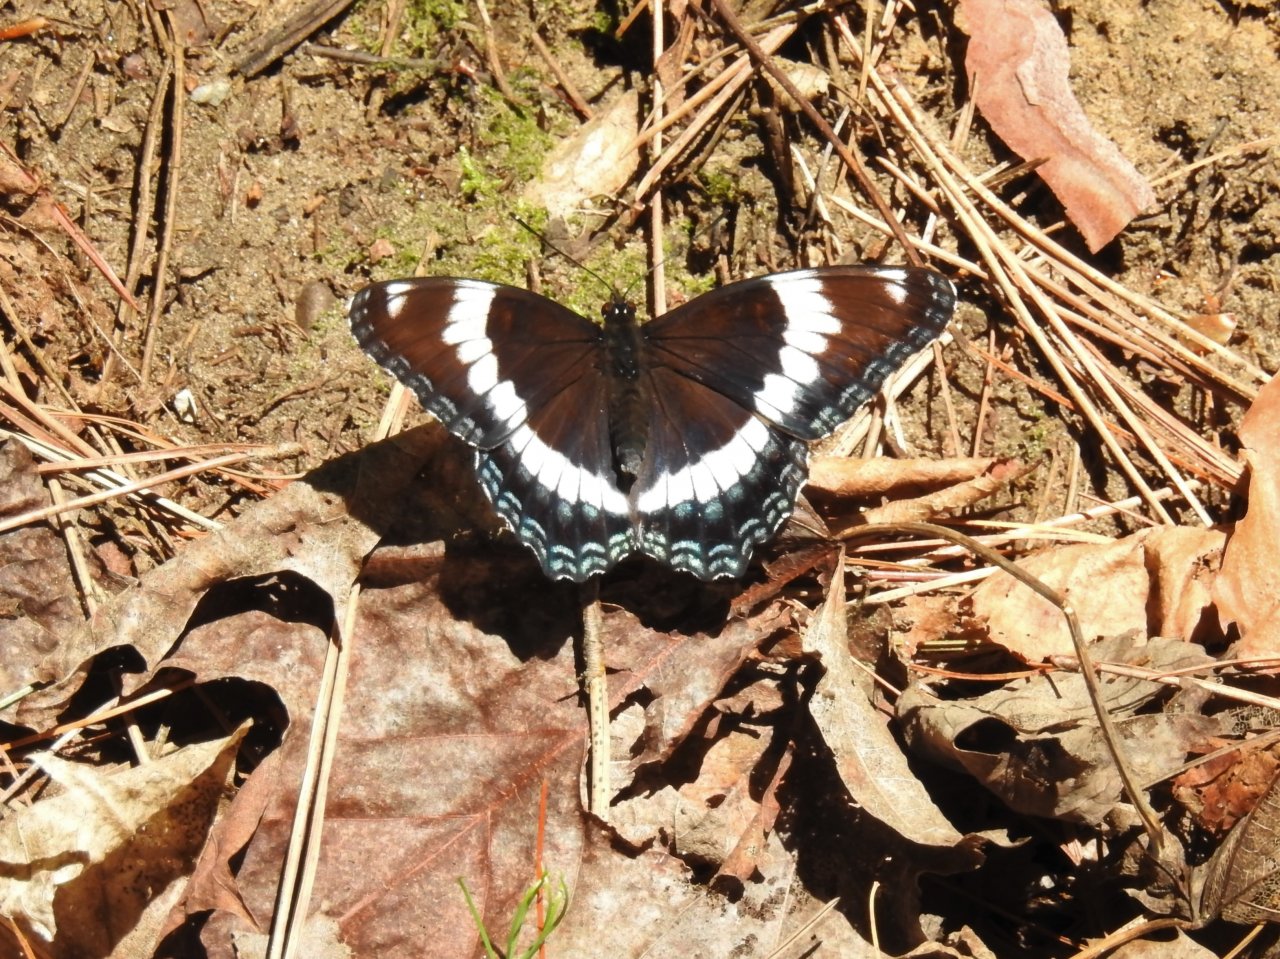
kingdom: Animalia
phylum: Arthropoda
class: Insecta
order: Lepidoptera
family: Nymphalidae
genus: Limenitis
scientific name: Limenitis arthemis
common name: Red-spotted Admiral
